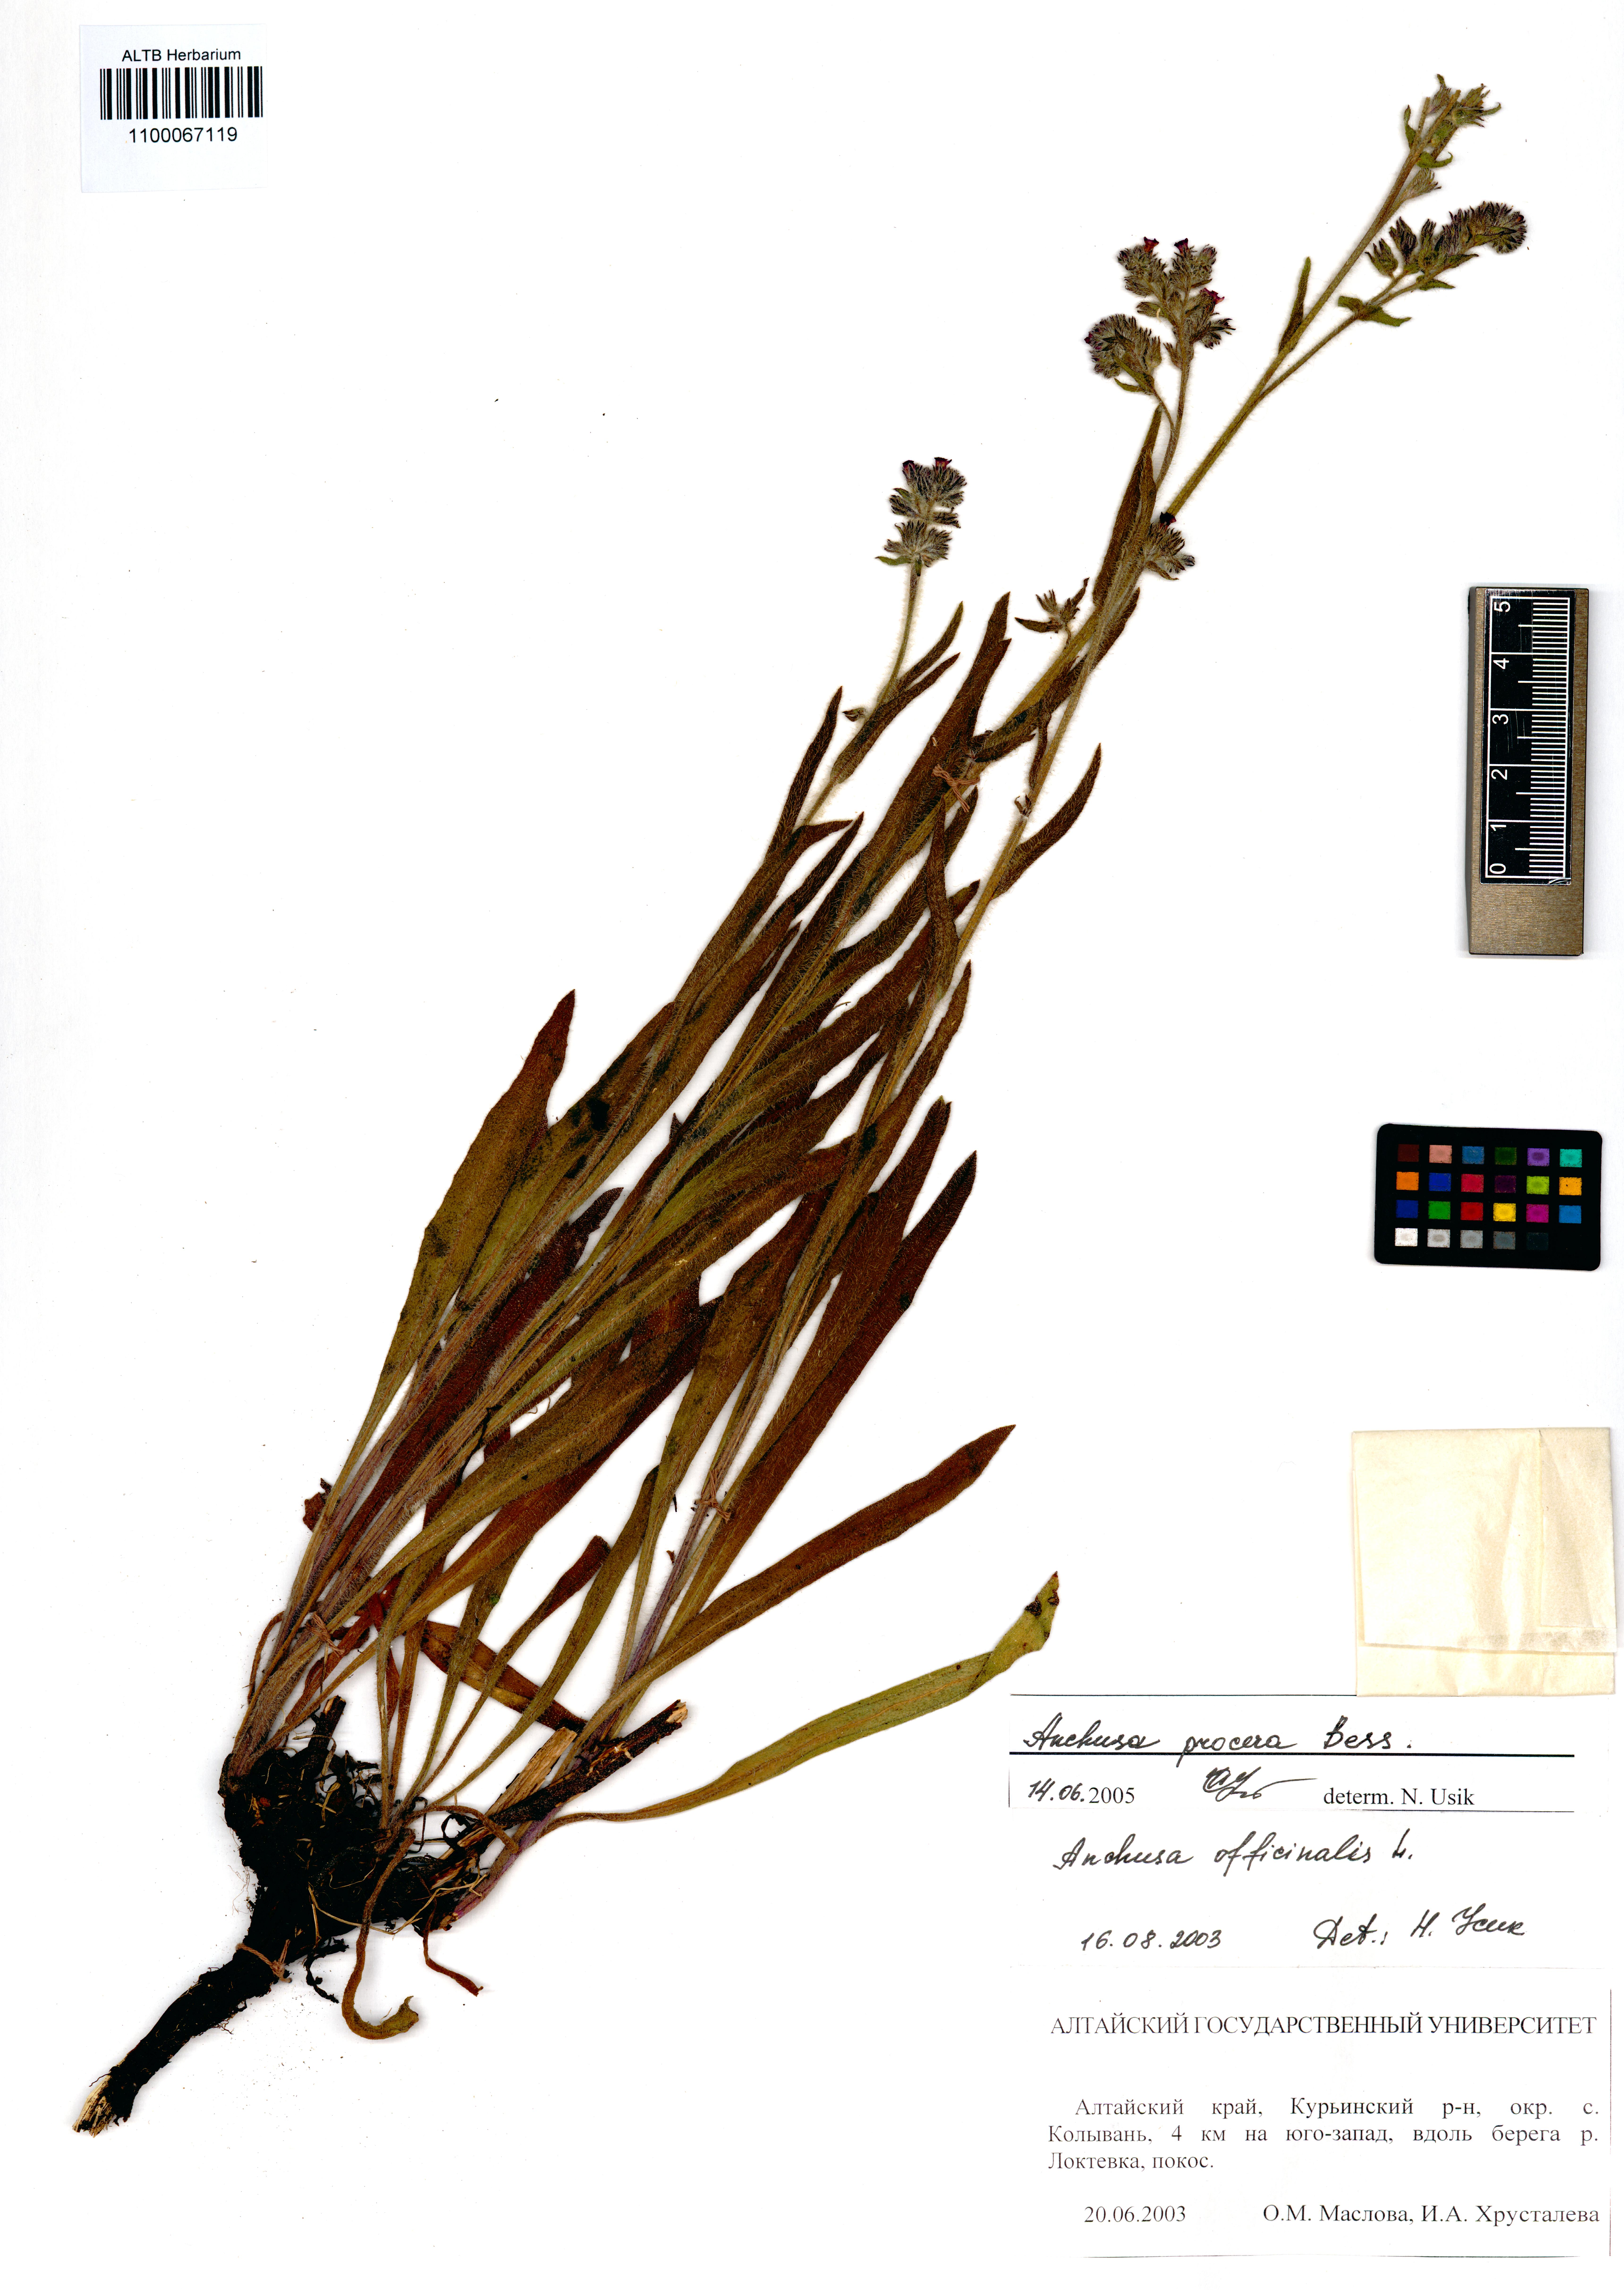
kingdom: Plantae
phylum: Tracheophyta
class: Magnoliopsida
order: Boraginales
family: Boraginaceae
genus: Anchusa
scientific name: Anchusa procera
